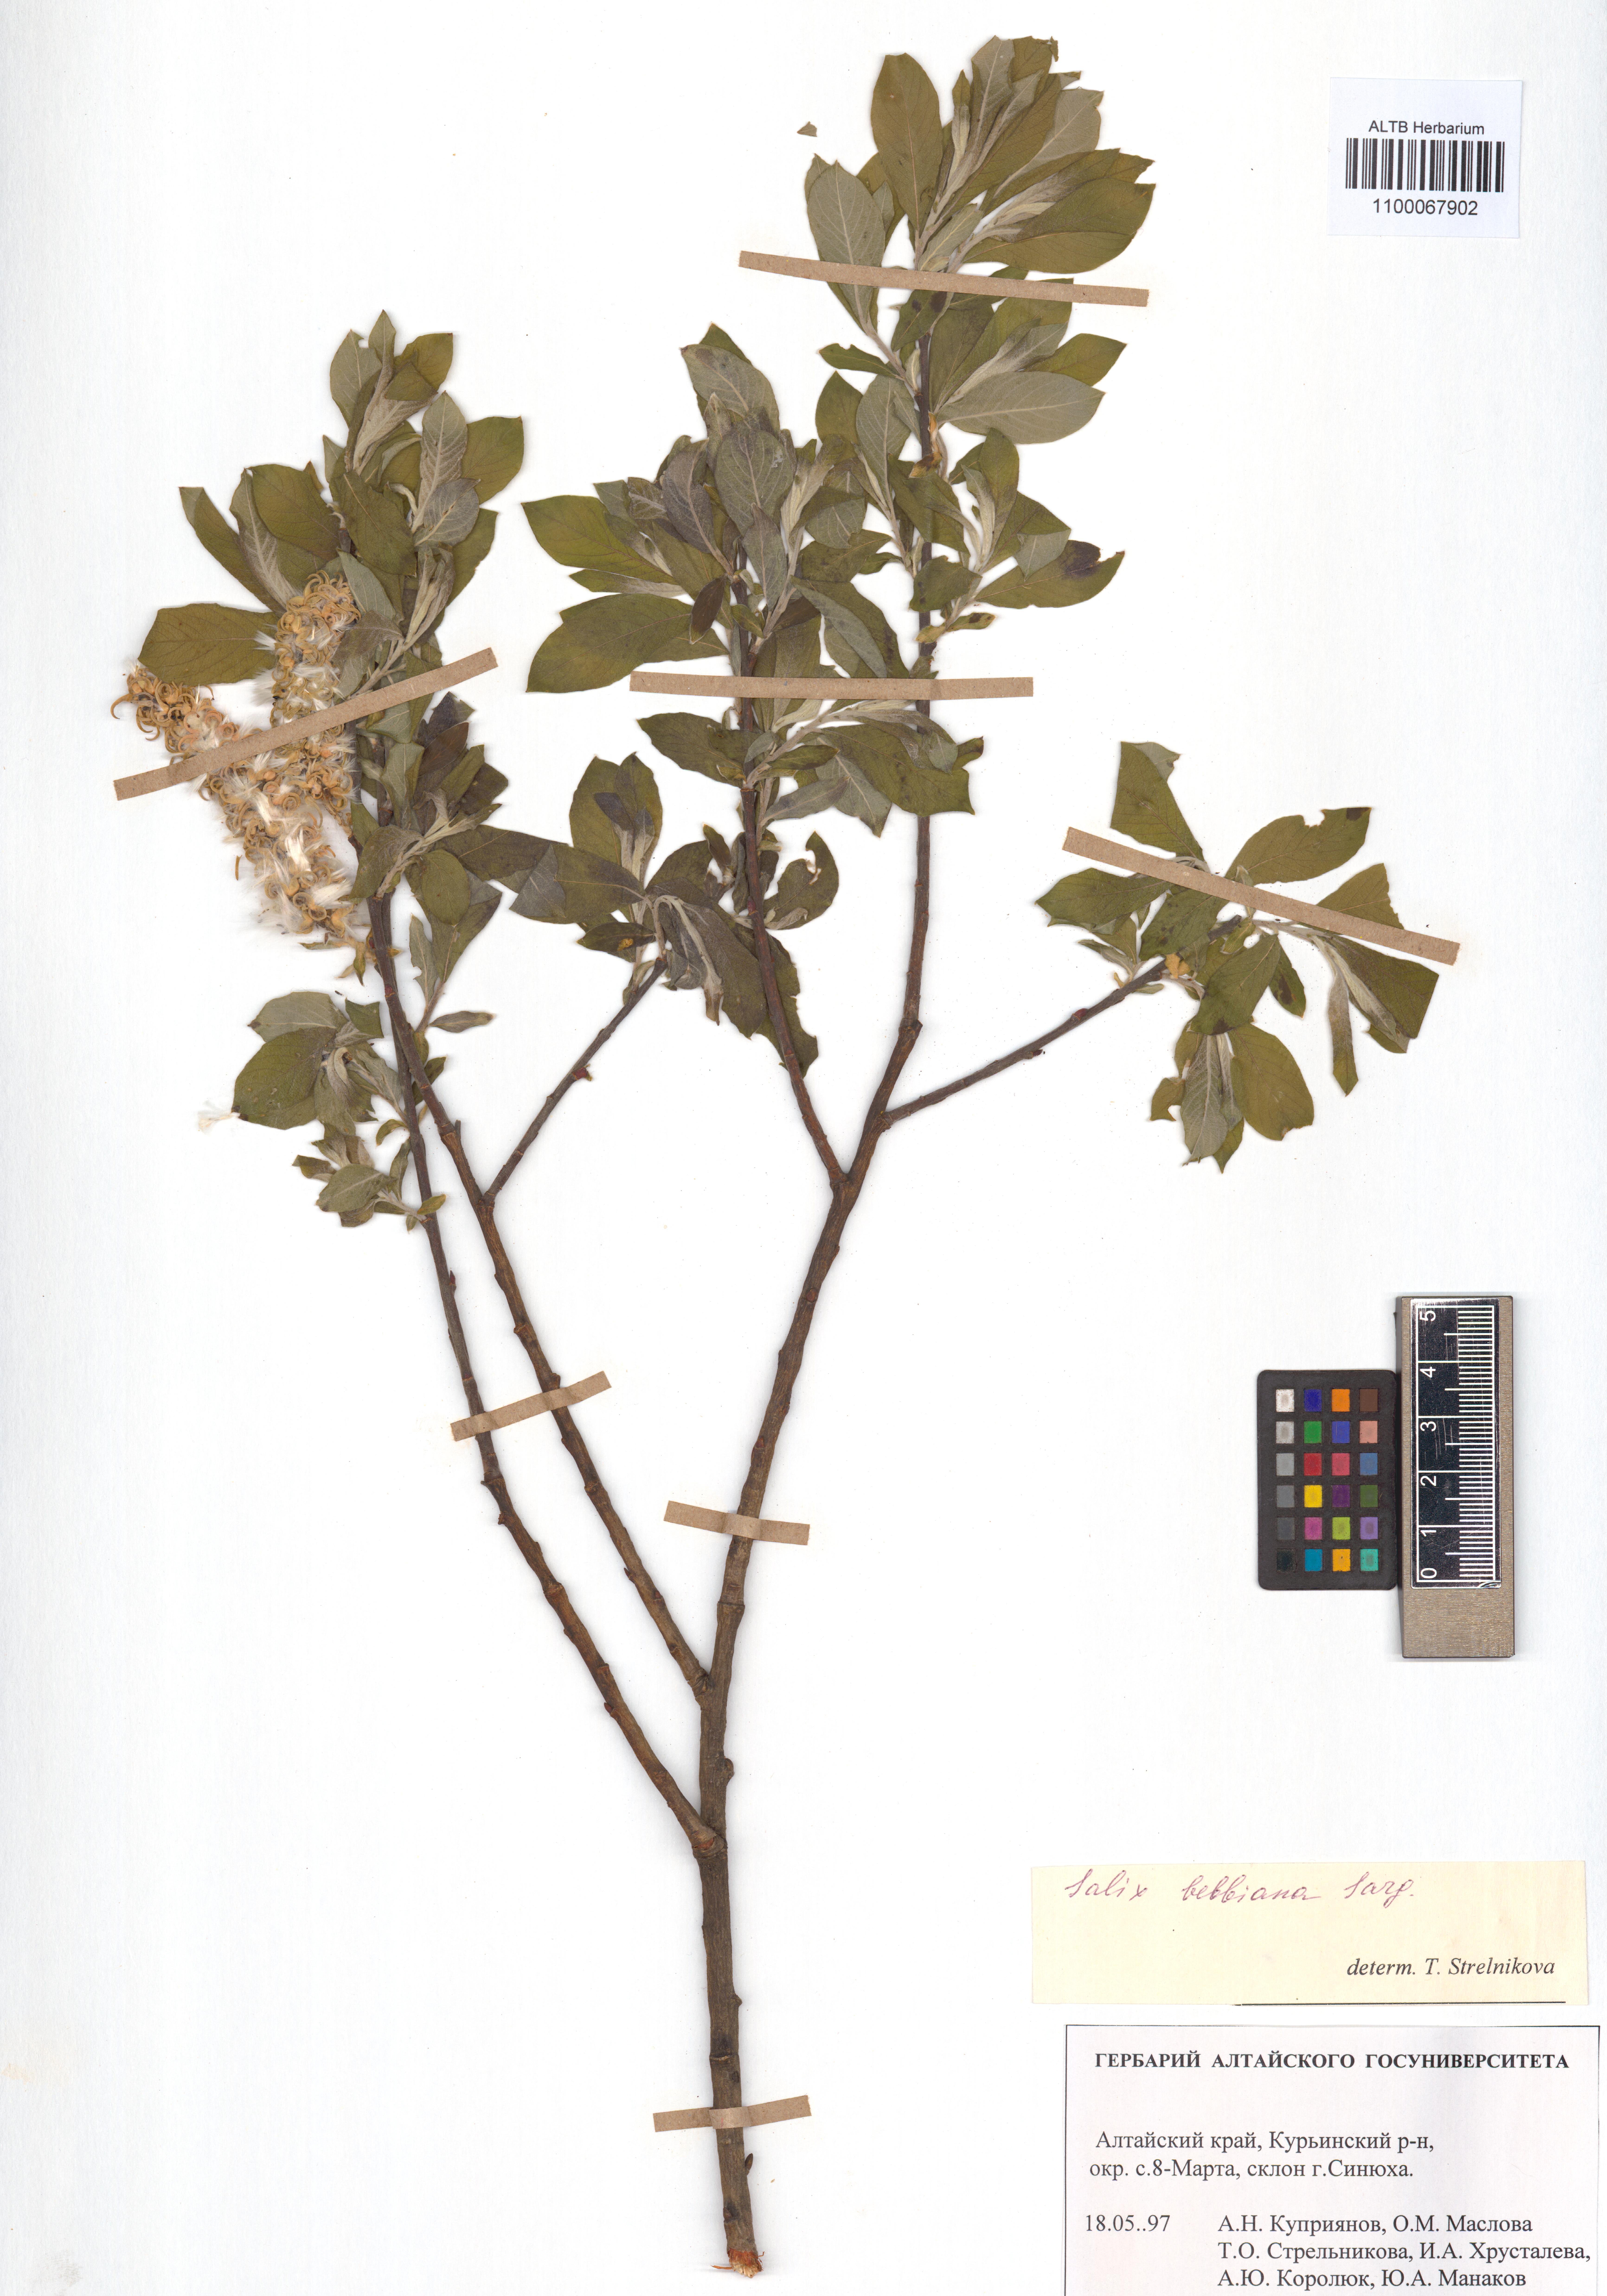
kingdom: Plantae
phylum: Tracheophyta
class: Magnoliopsida
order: Malpighiales
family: Salicaceae
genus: Salix
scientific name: Salix bebbiana
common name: Bebb's willow
